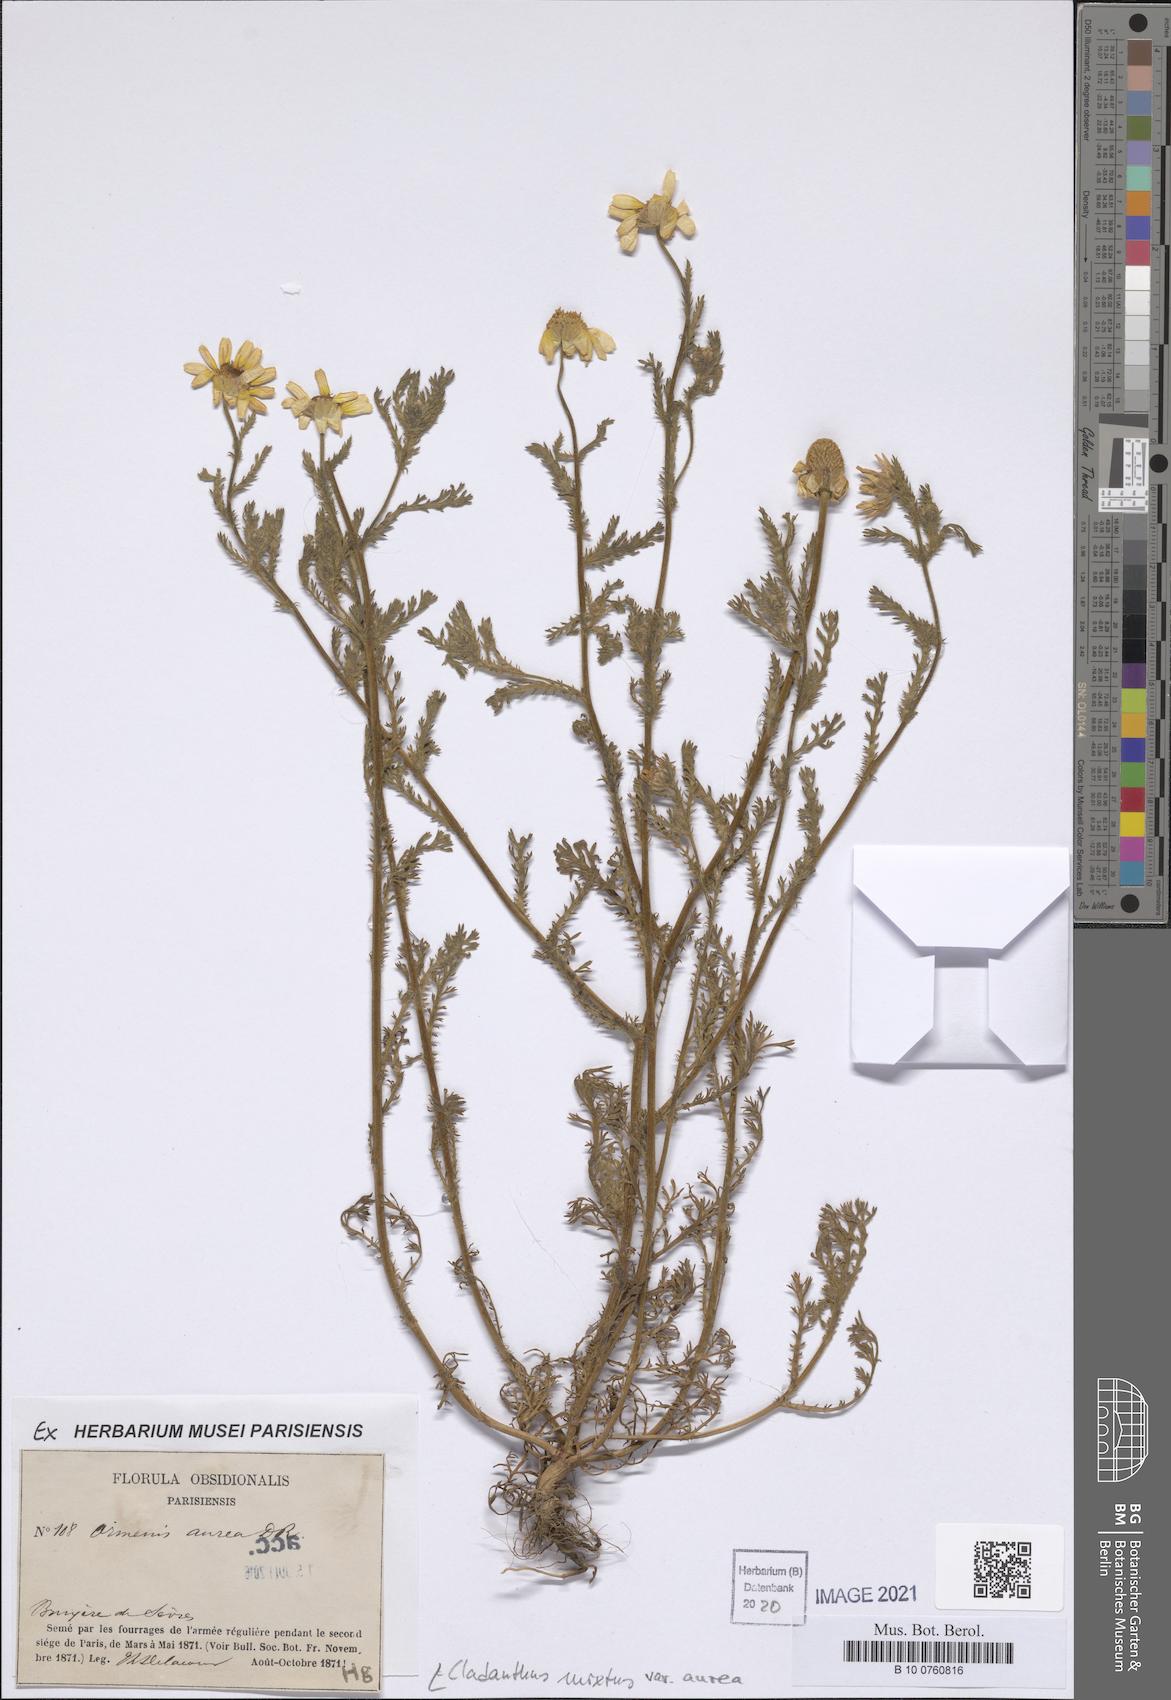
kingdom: Plantae
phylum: Tracheophyta
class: Magnoliopsida
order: Asterales
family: Asteraceae
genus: Cladanthus
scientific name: Cladanthus mixtus
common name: Weedy dogfennel
